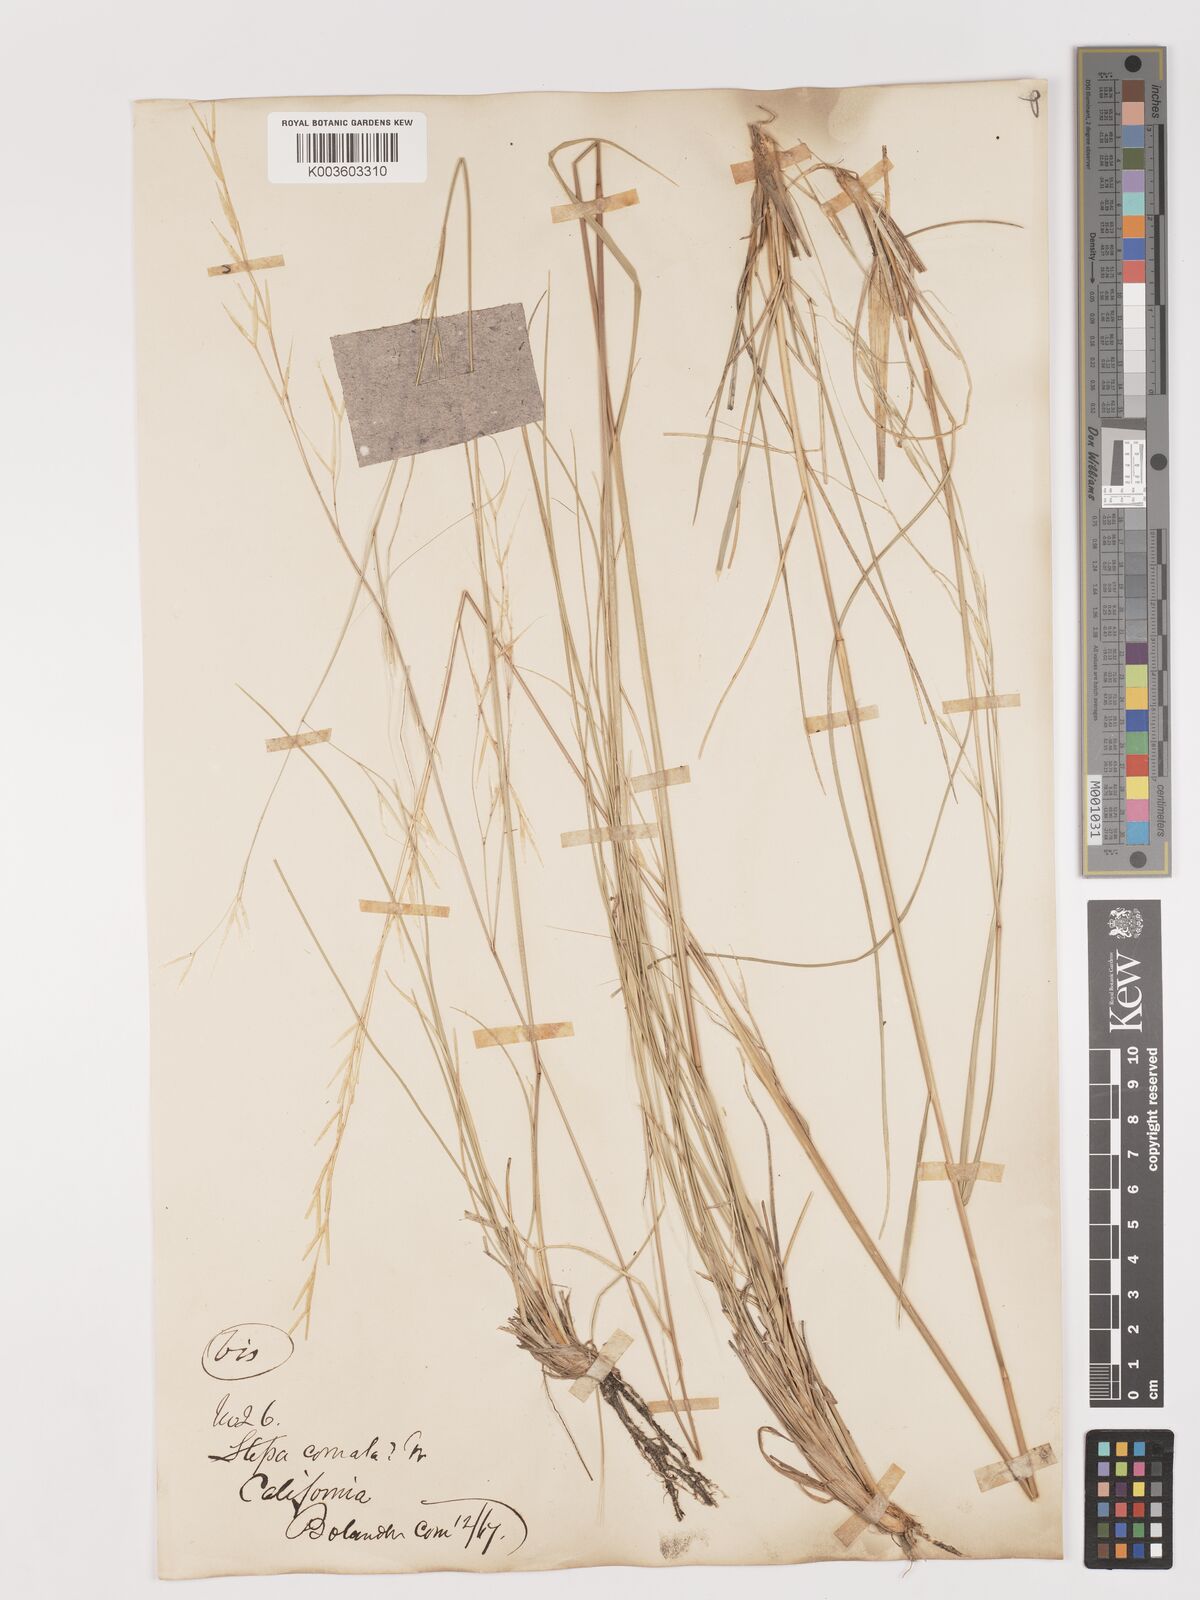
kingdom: Plantae
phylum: Tracheophyta
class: Liliopsida
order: Poales
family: Poaceae
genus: Stipa
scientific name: Stipa
